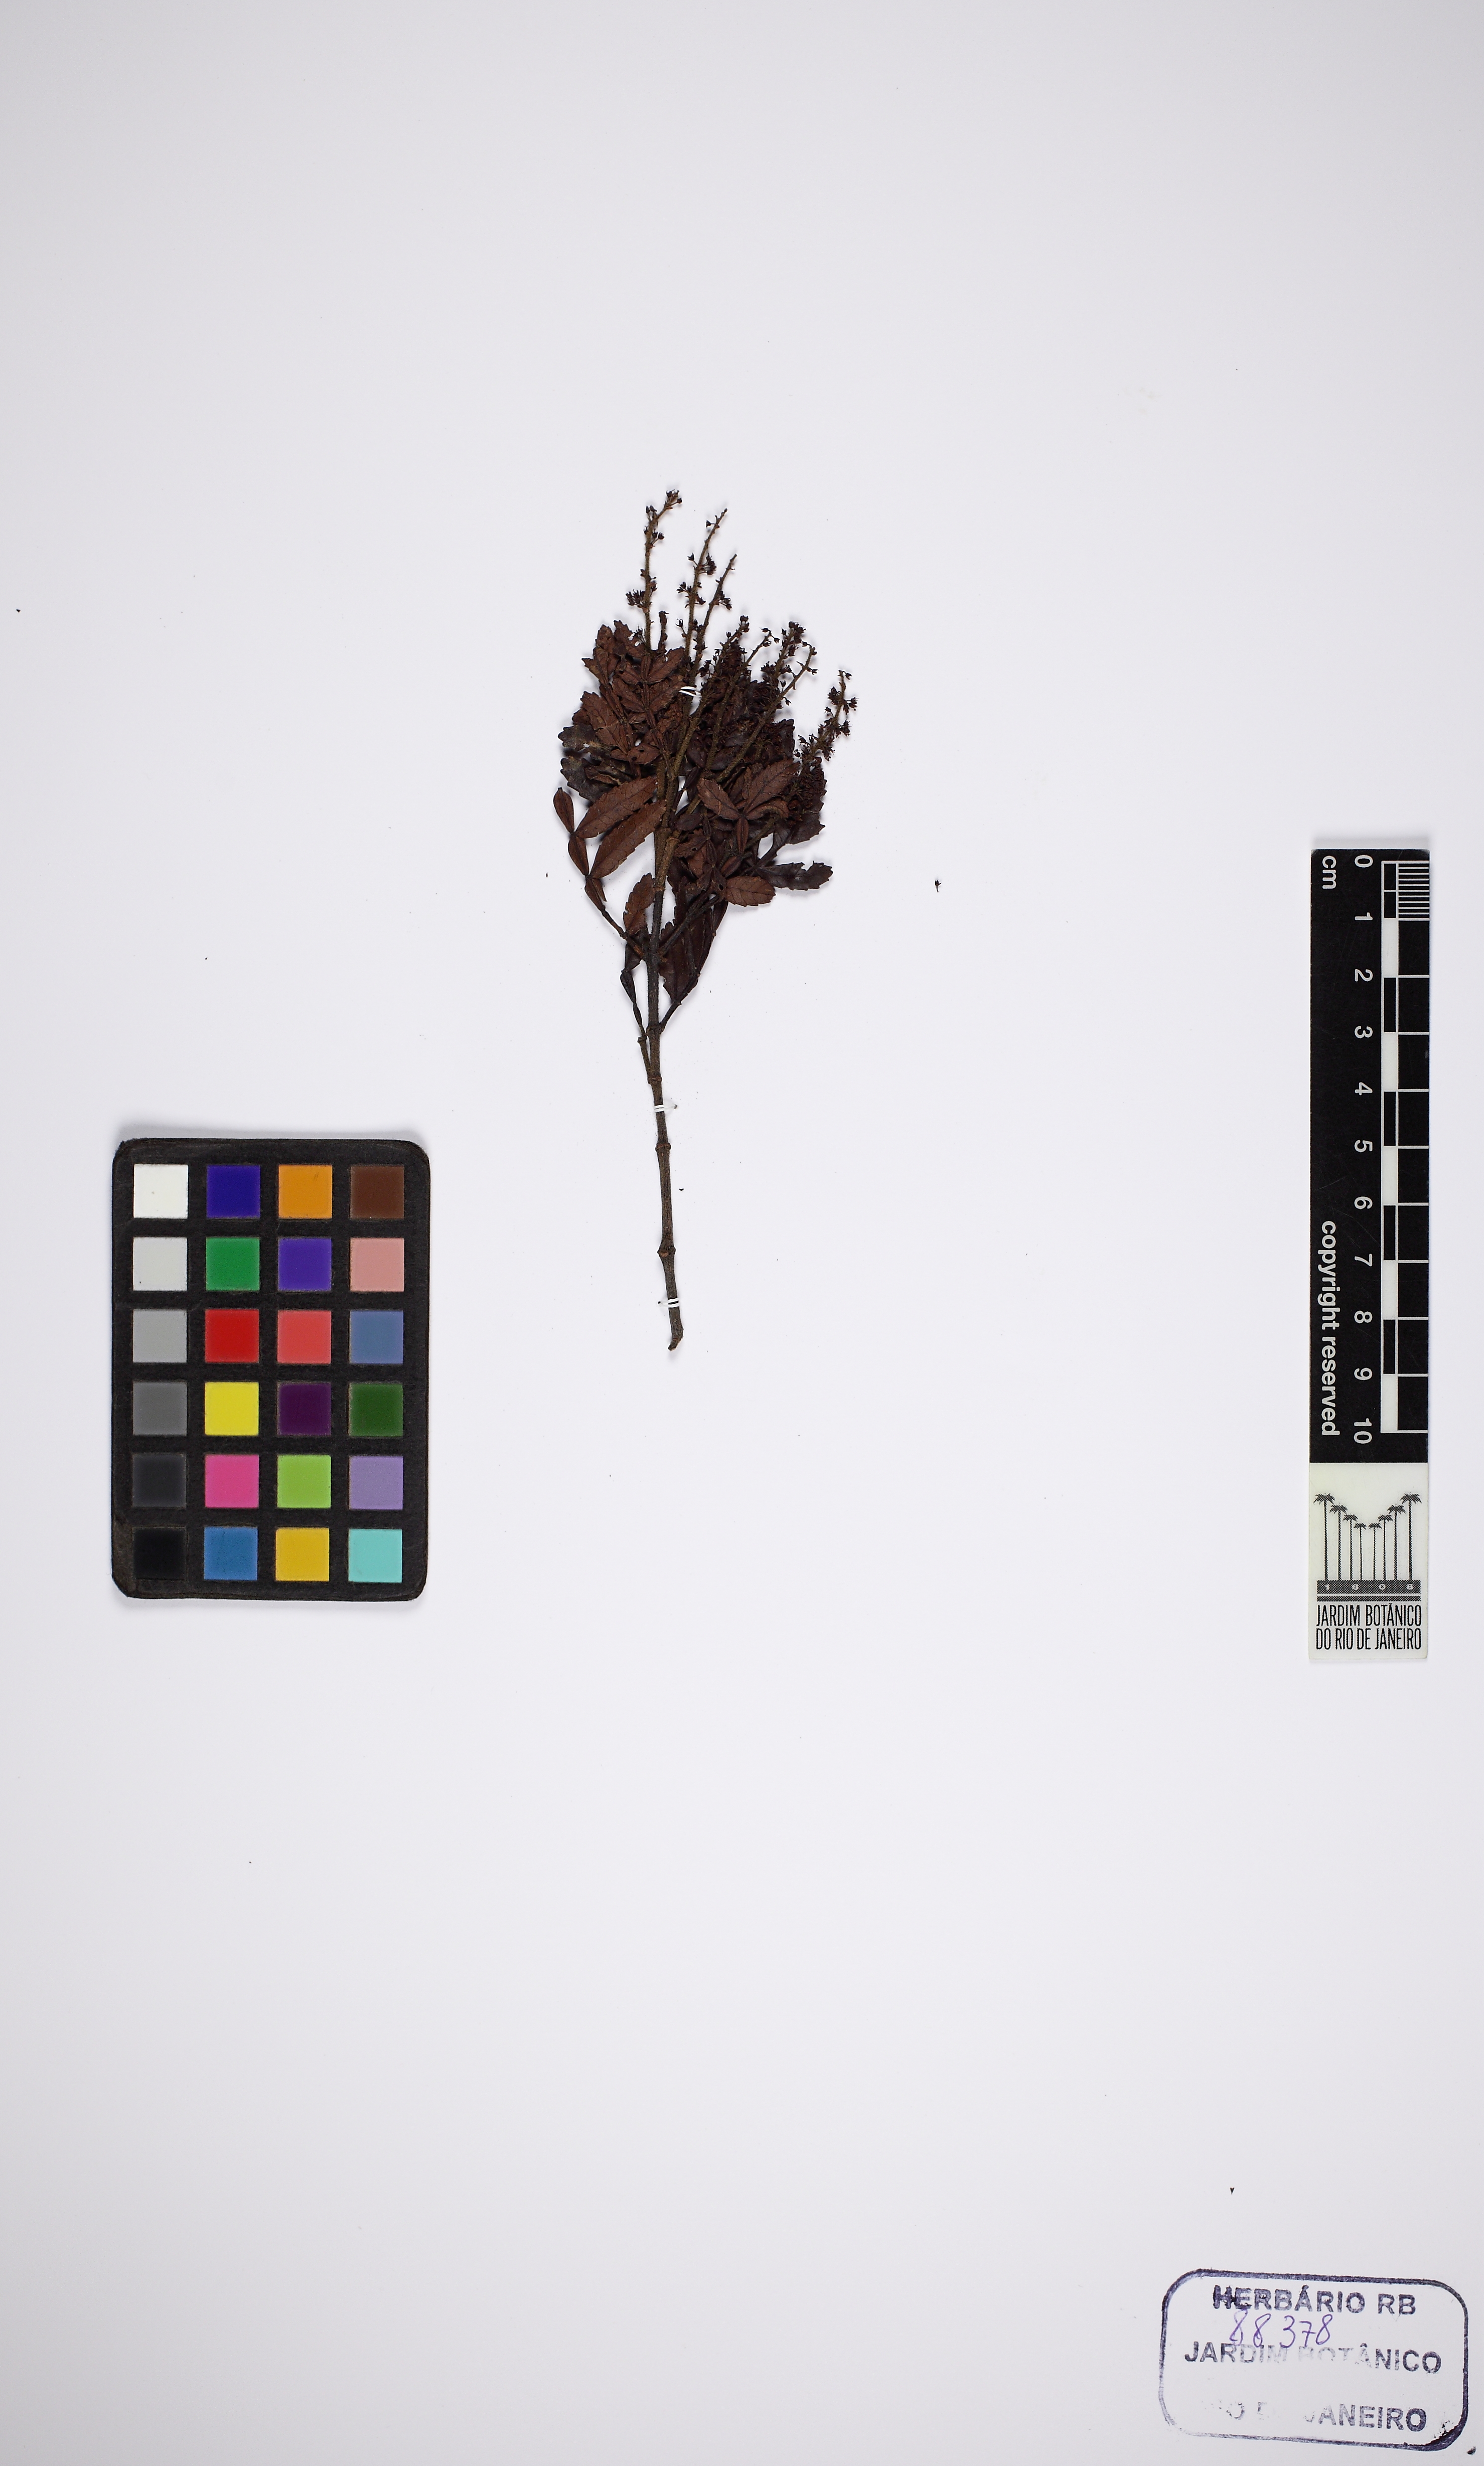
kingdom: Plantae
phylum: Tracheophyta
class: Magnoliopsida
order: Oxalidales
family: Cunoniaceae
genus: Weinmannia
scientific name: Weinmannia paullinifolia
